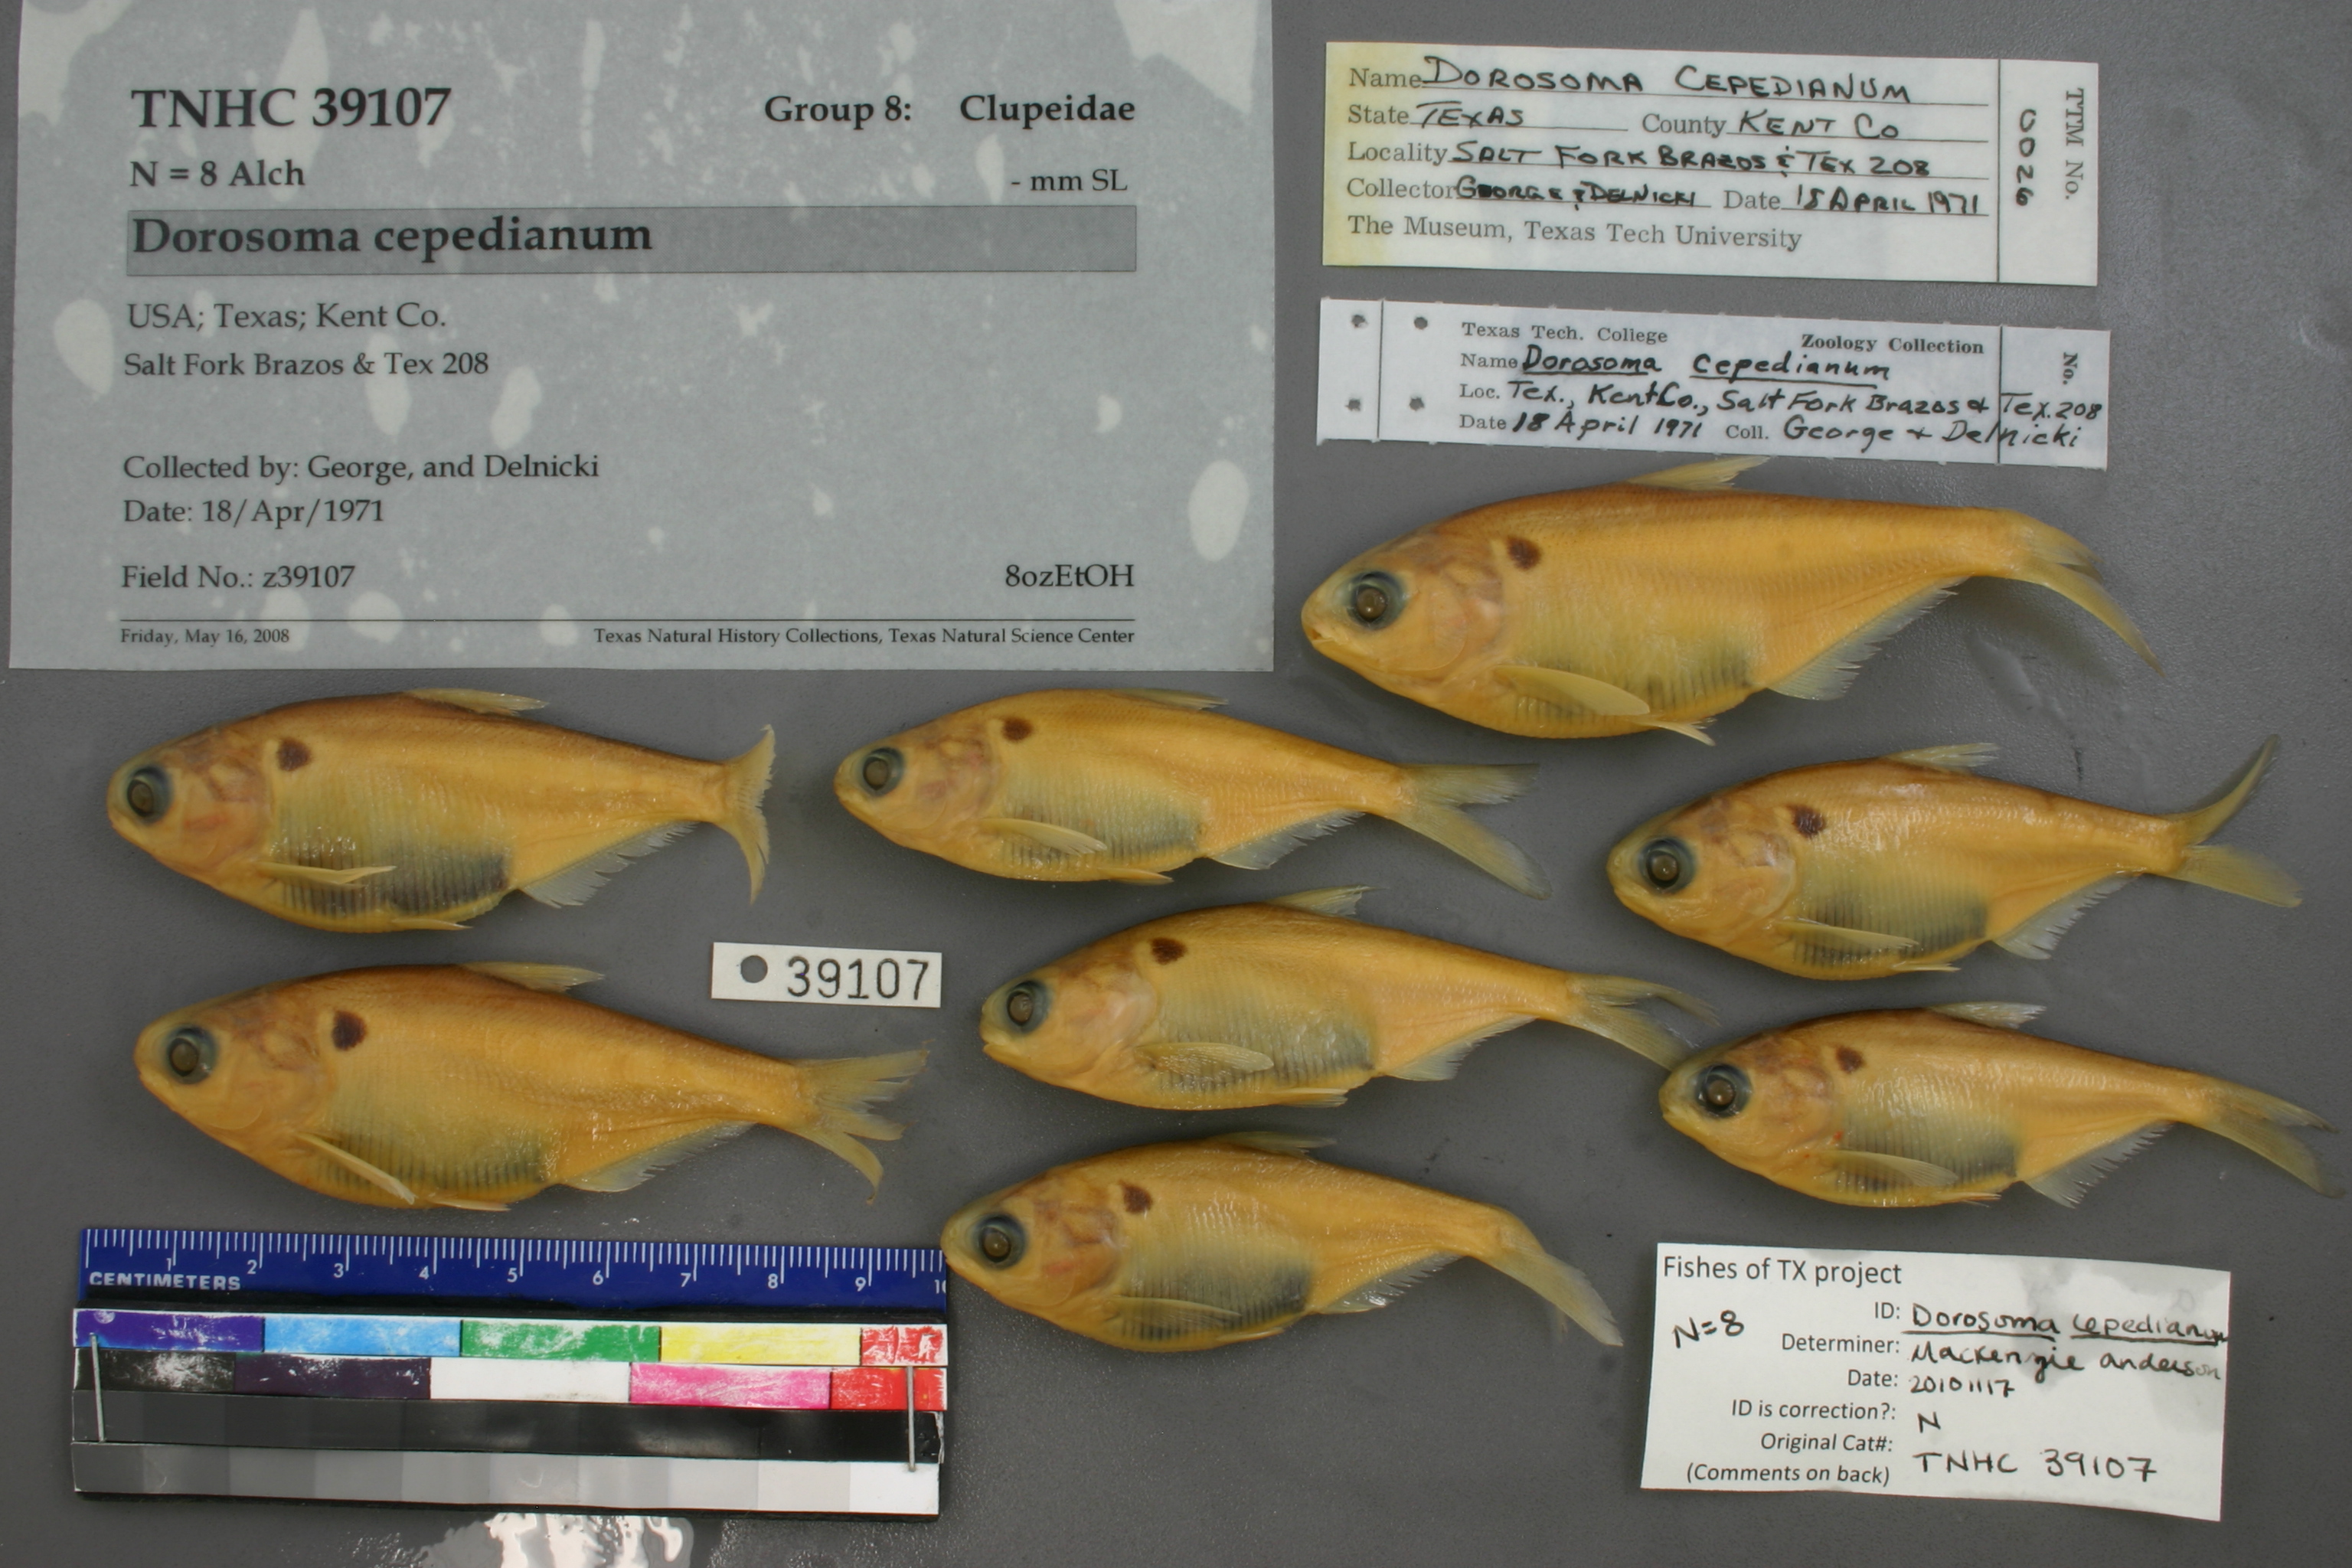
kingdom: Animalia
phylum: Chordata
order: Clupeiformes
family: Clupeidae
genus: Dorosoma
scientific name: Dorosoma cepedianum
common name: Gizzard shad
